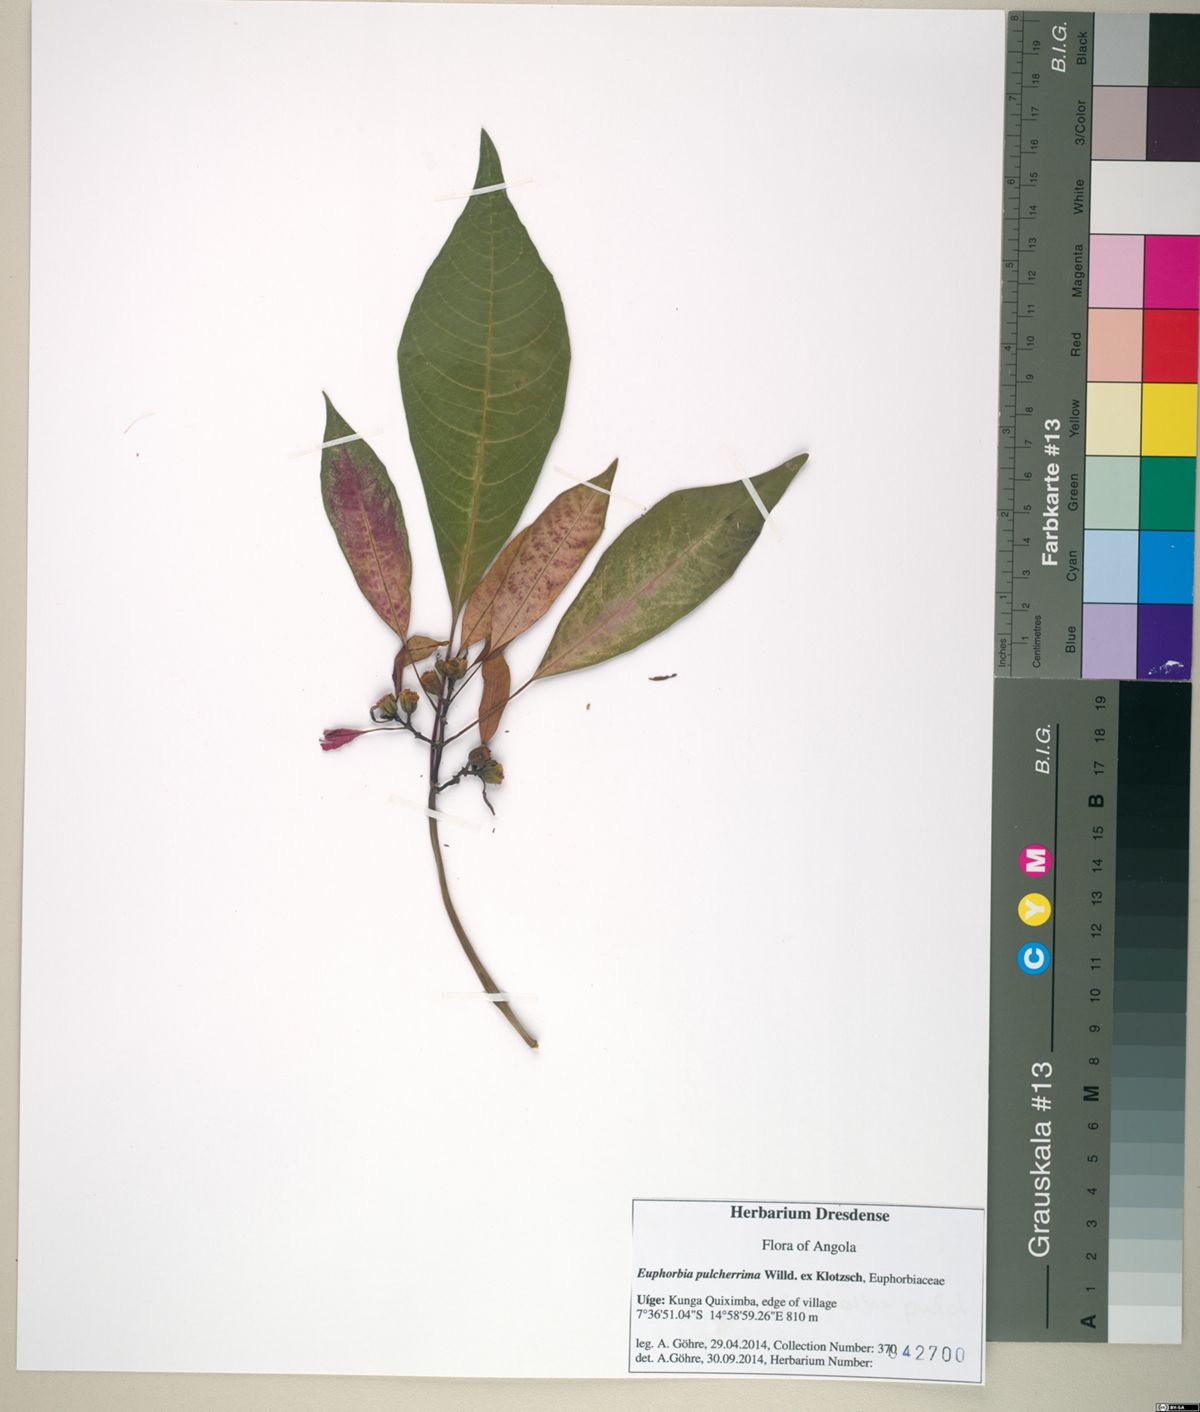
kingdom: Plantae
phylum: Tracheophyta
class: Magnoliopsida
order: Malpighiales
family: Euphorbiaceae
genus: Euphorbia
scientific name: Euphorbia pulcherrima
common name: Christmas-flower
